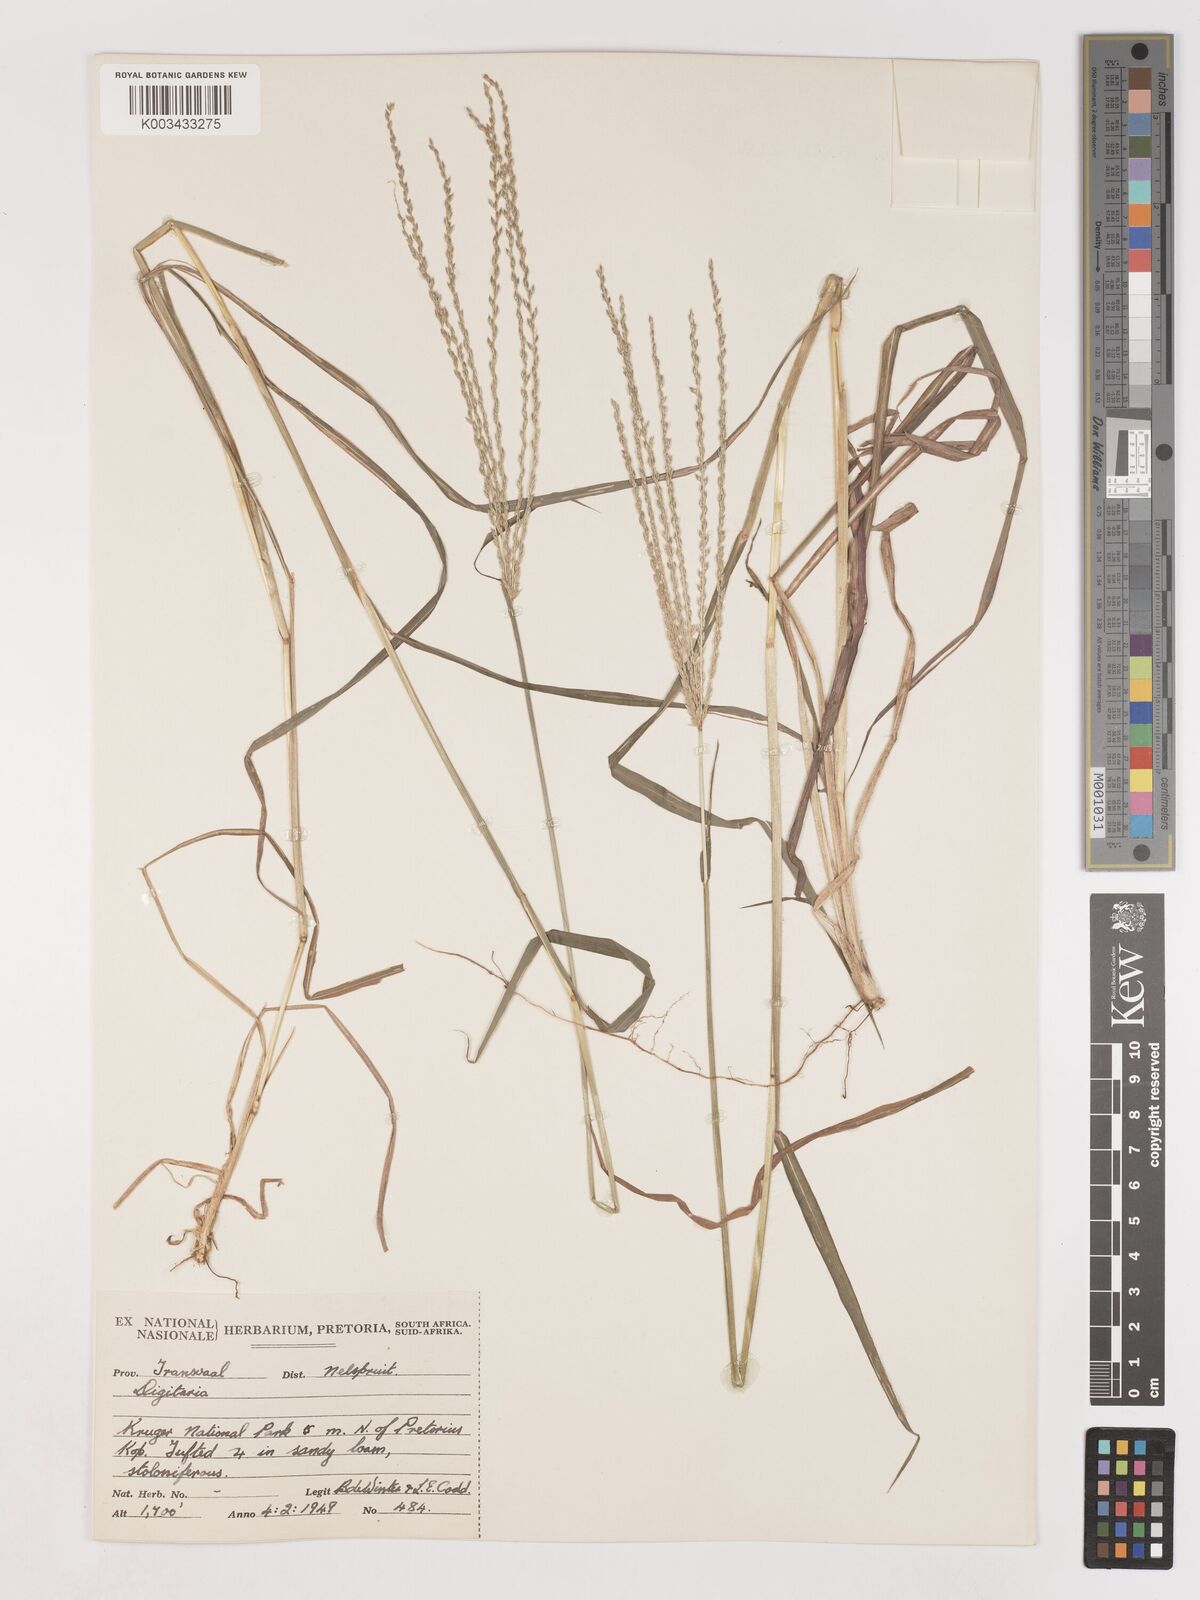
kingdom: Plantae
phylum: Tracheophyta
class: Liliopsida
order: Poales
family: Poaceae
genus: Digitaria
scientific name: Digitaria eriantha
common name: Digitgrass
